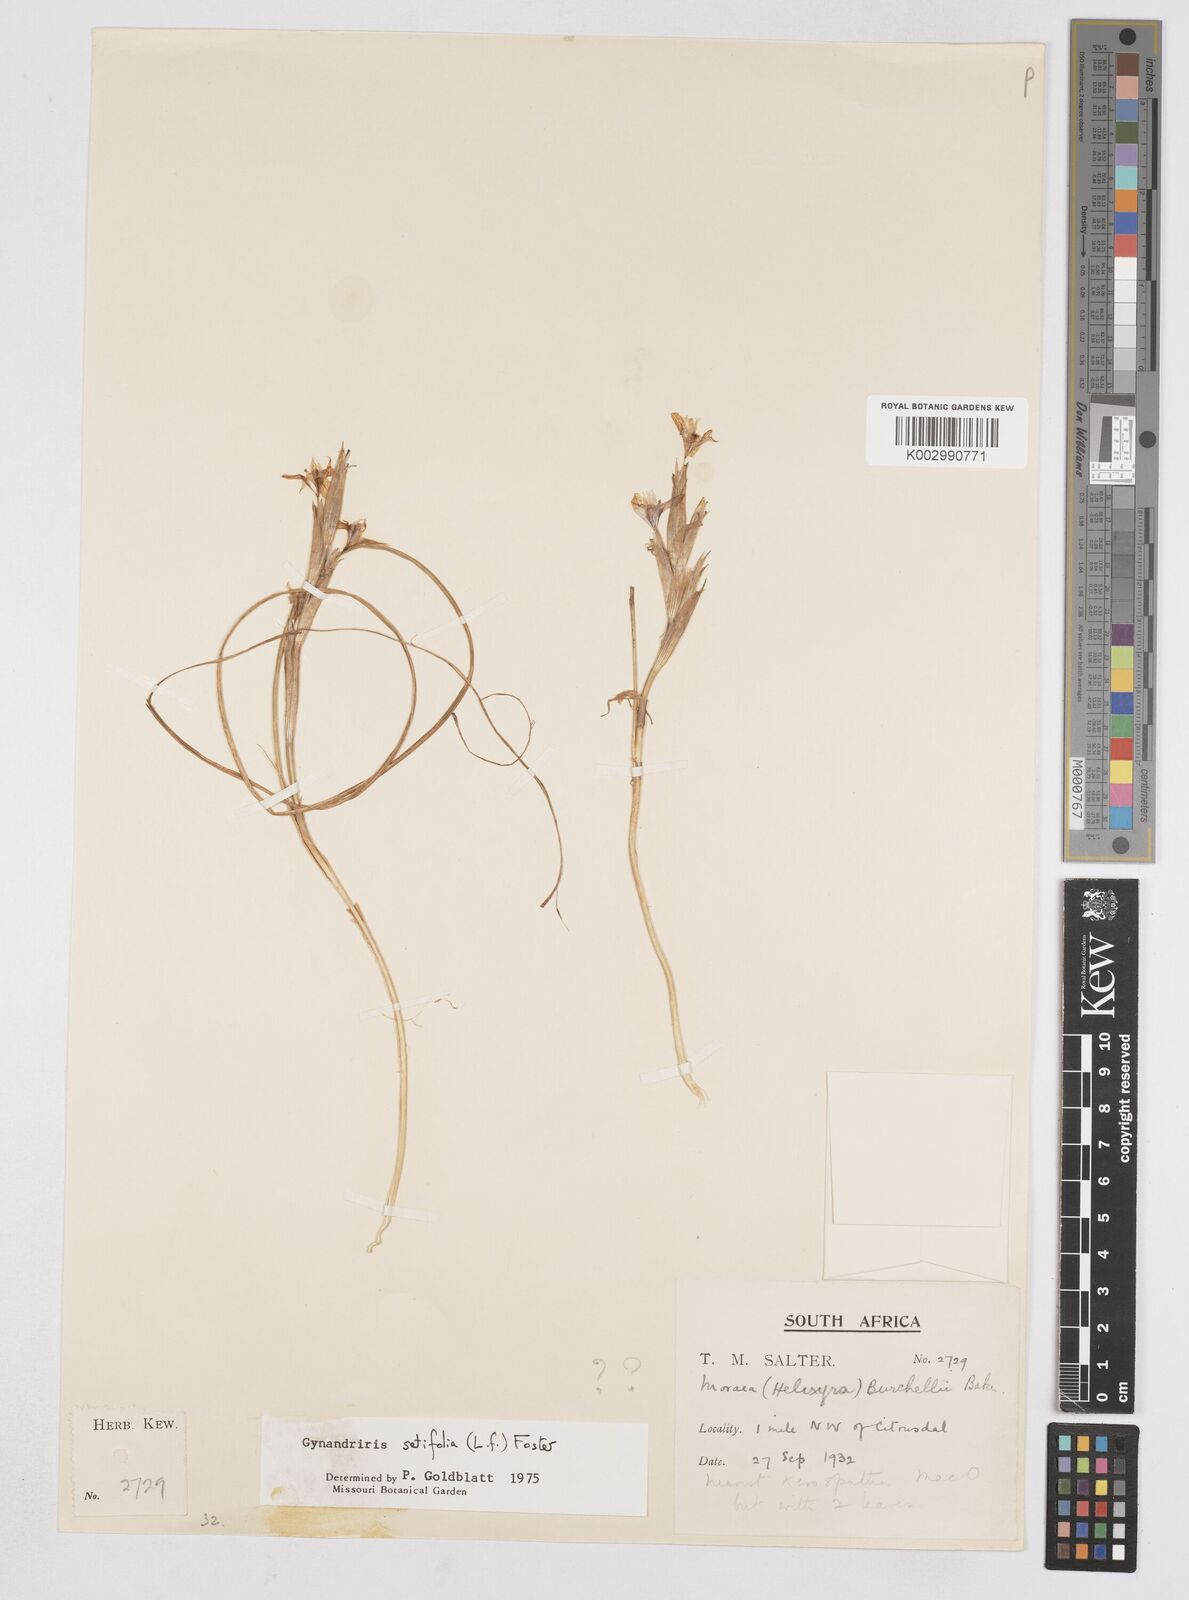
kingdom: Plantae
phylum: Tracheophyta
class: Liliopsida
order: Asparagales
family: Iridaceae
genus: Moraea
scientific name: Moraea setifolia
